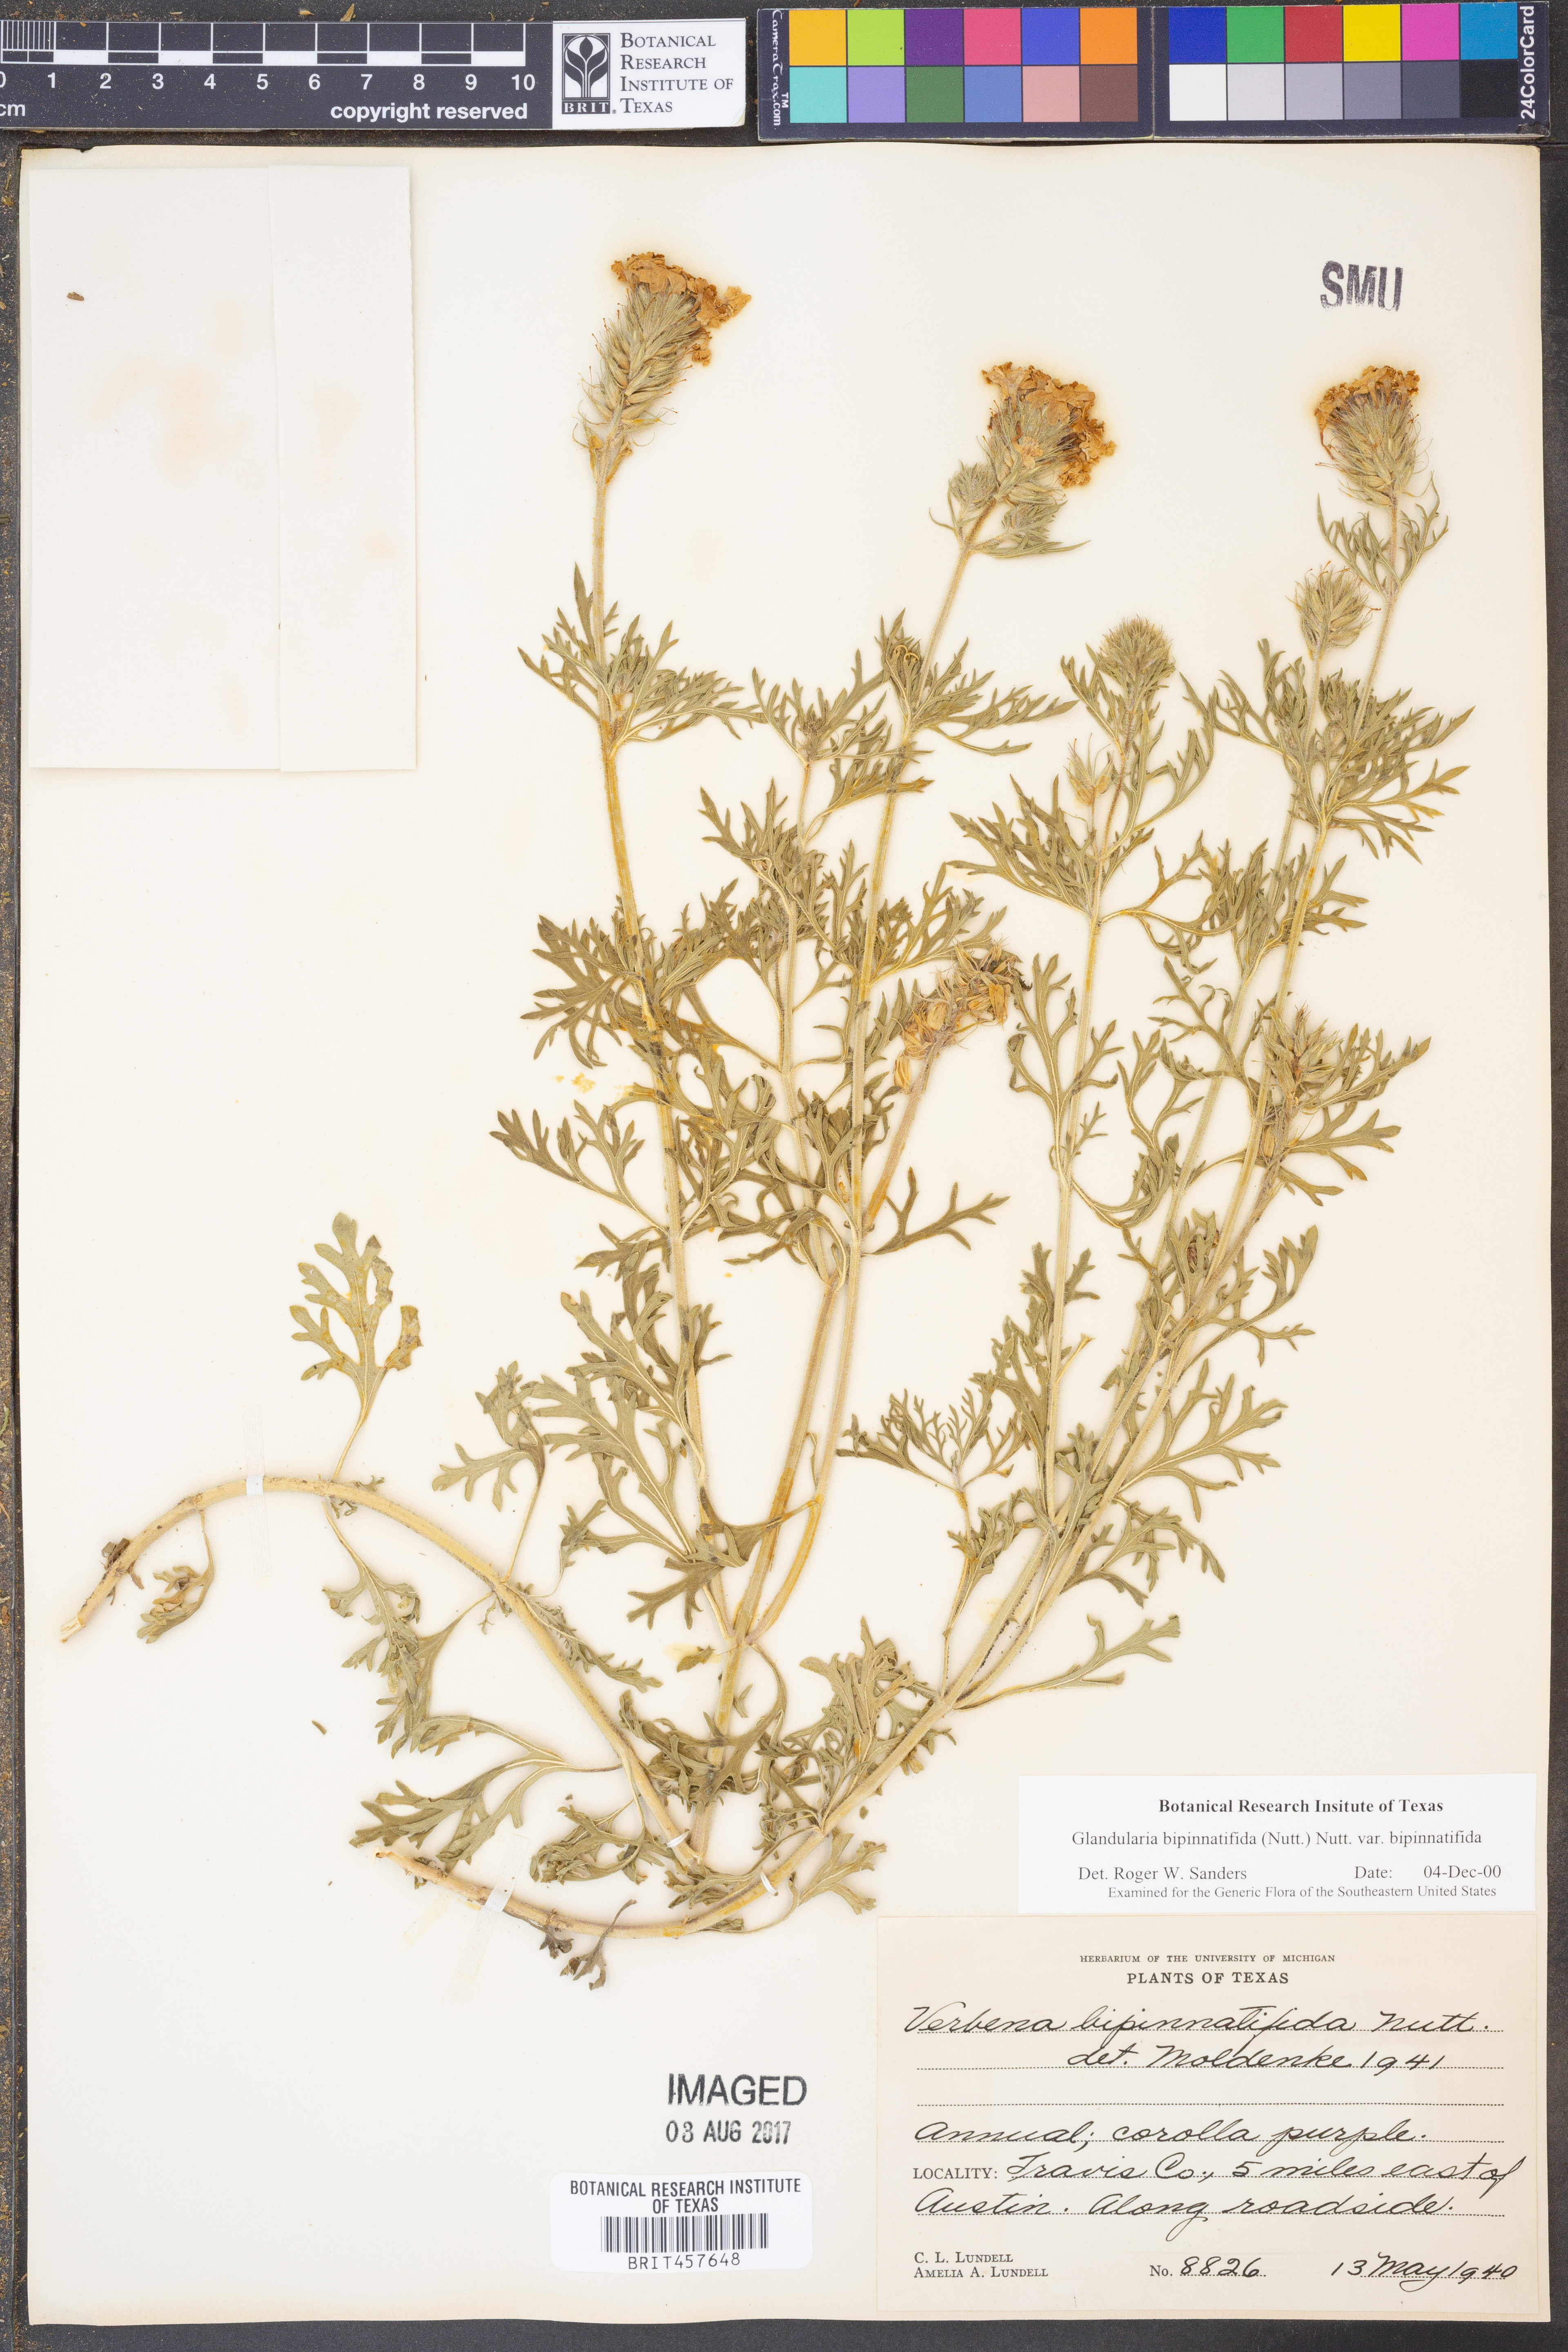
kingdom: Plantae
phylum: Tracheophyta
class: Magnoliopsida
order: Lamiales
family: Verbenaceae
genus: Verbena
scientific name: Verbena bipinnatifida
